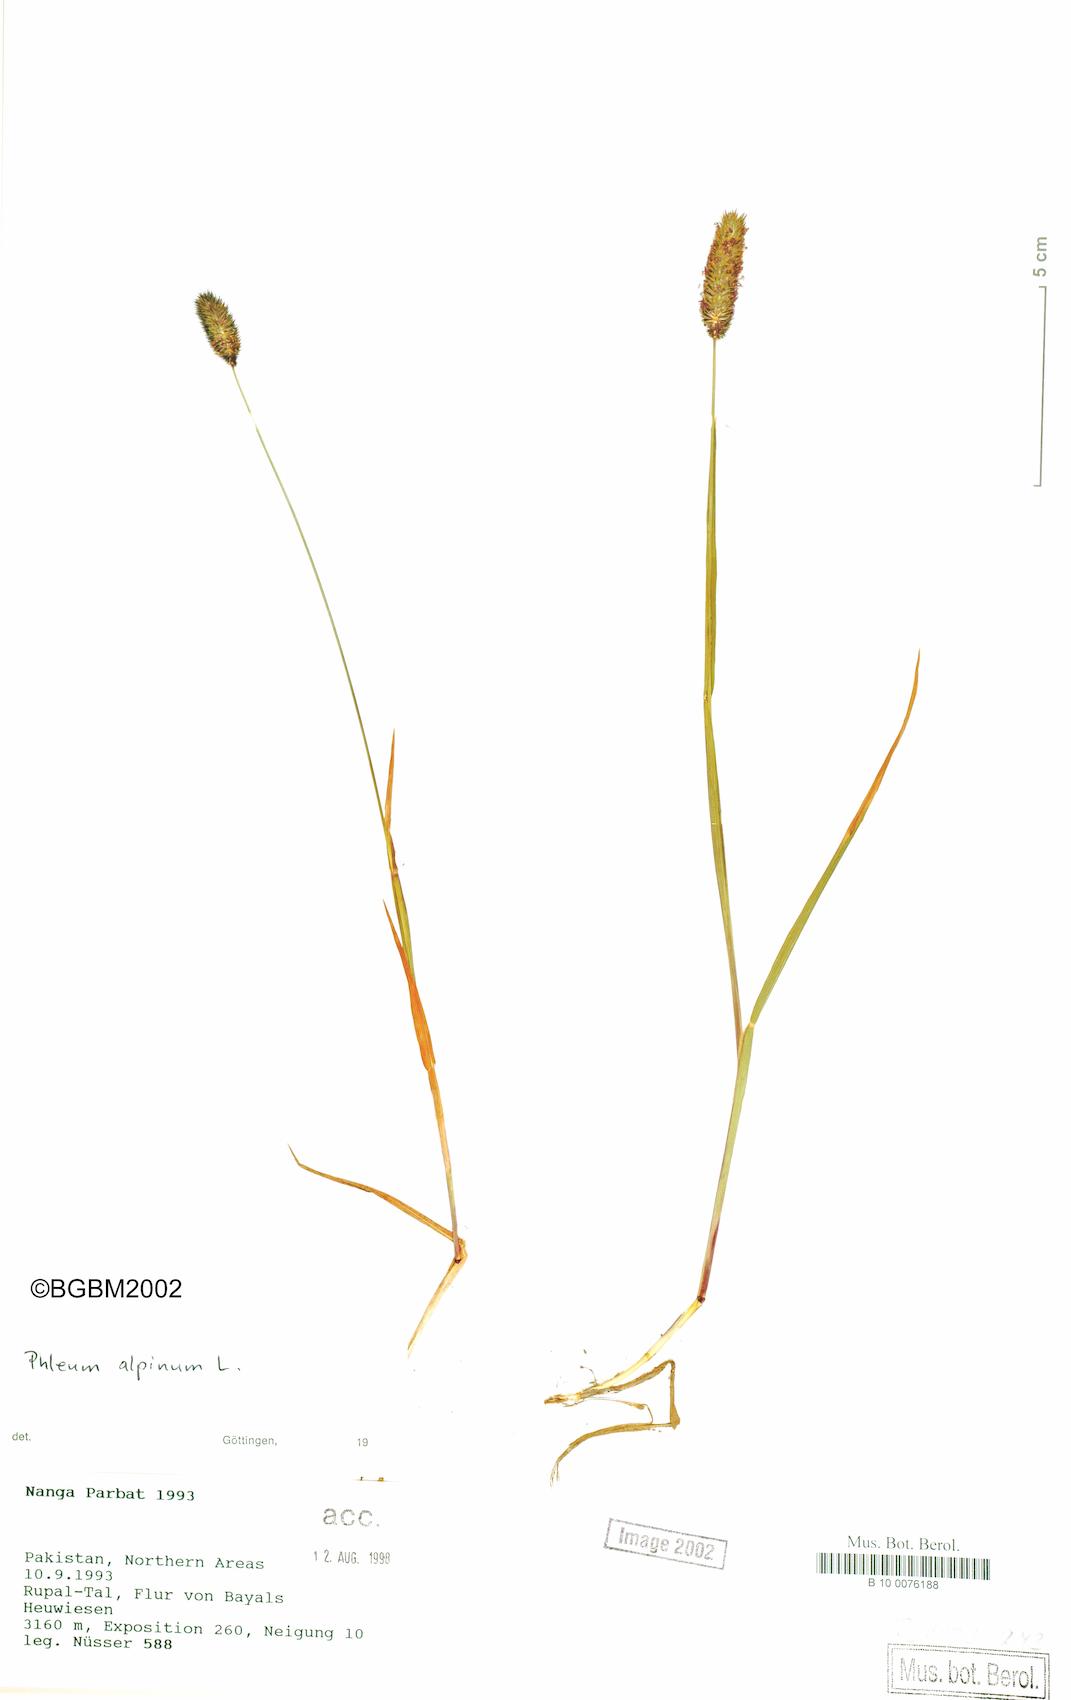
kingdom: Plantae
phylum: Tracheophyta
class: Liliopsida
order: Poales
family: Poaceae
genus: Phleum
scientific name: Phleum alpinum
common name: Alpine cat's-tail
